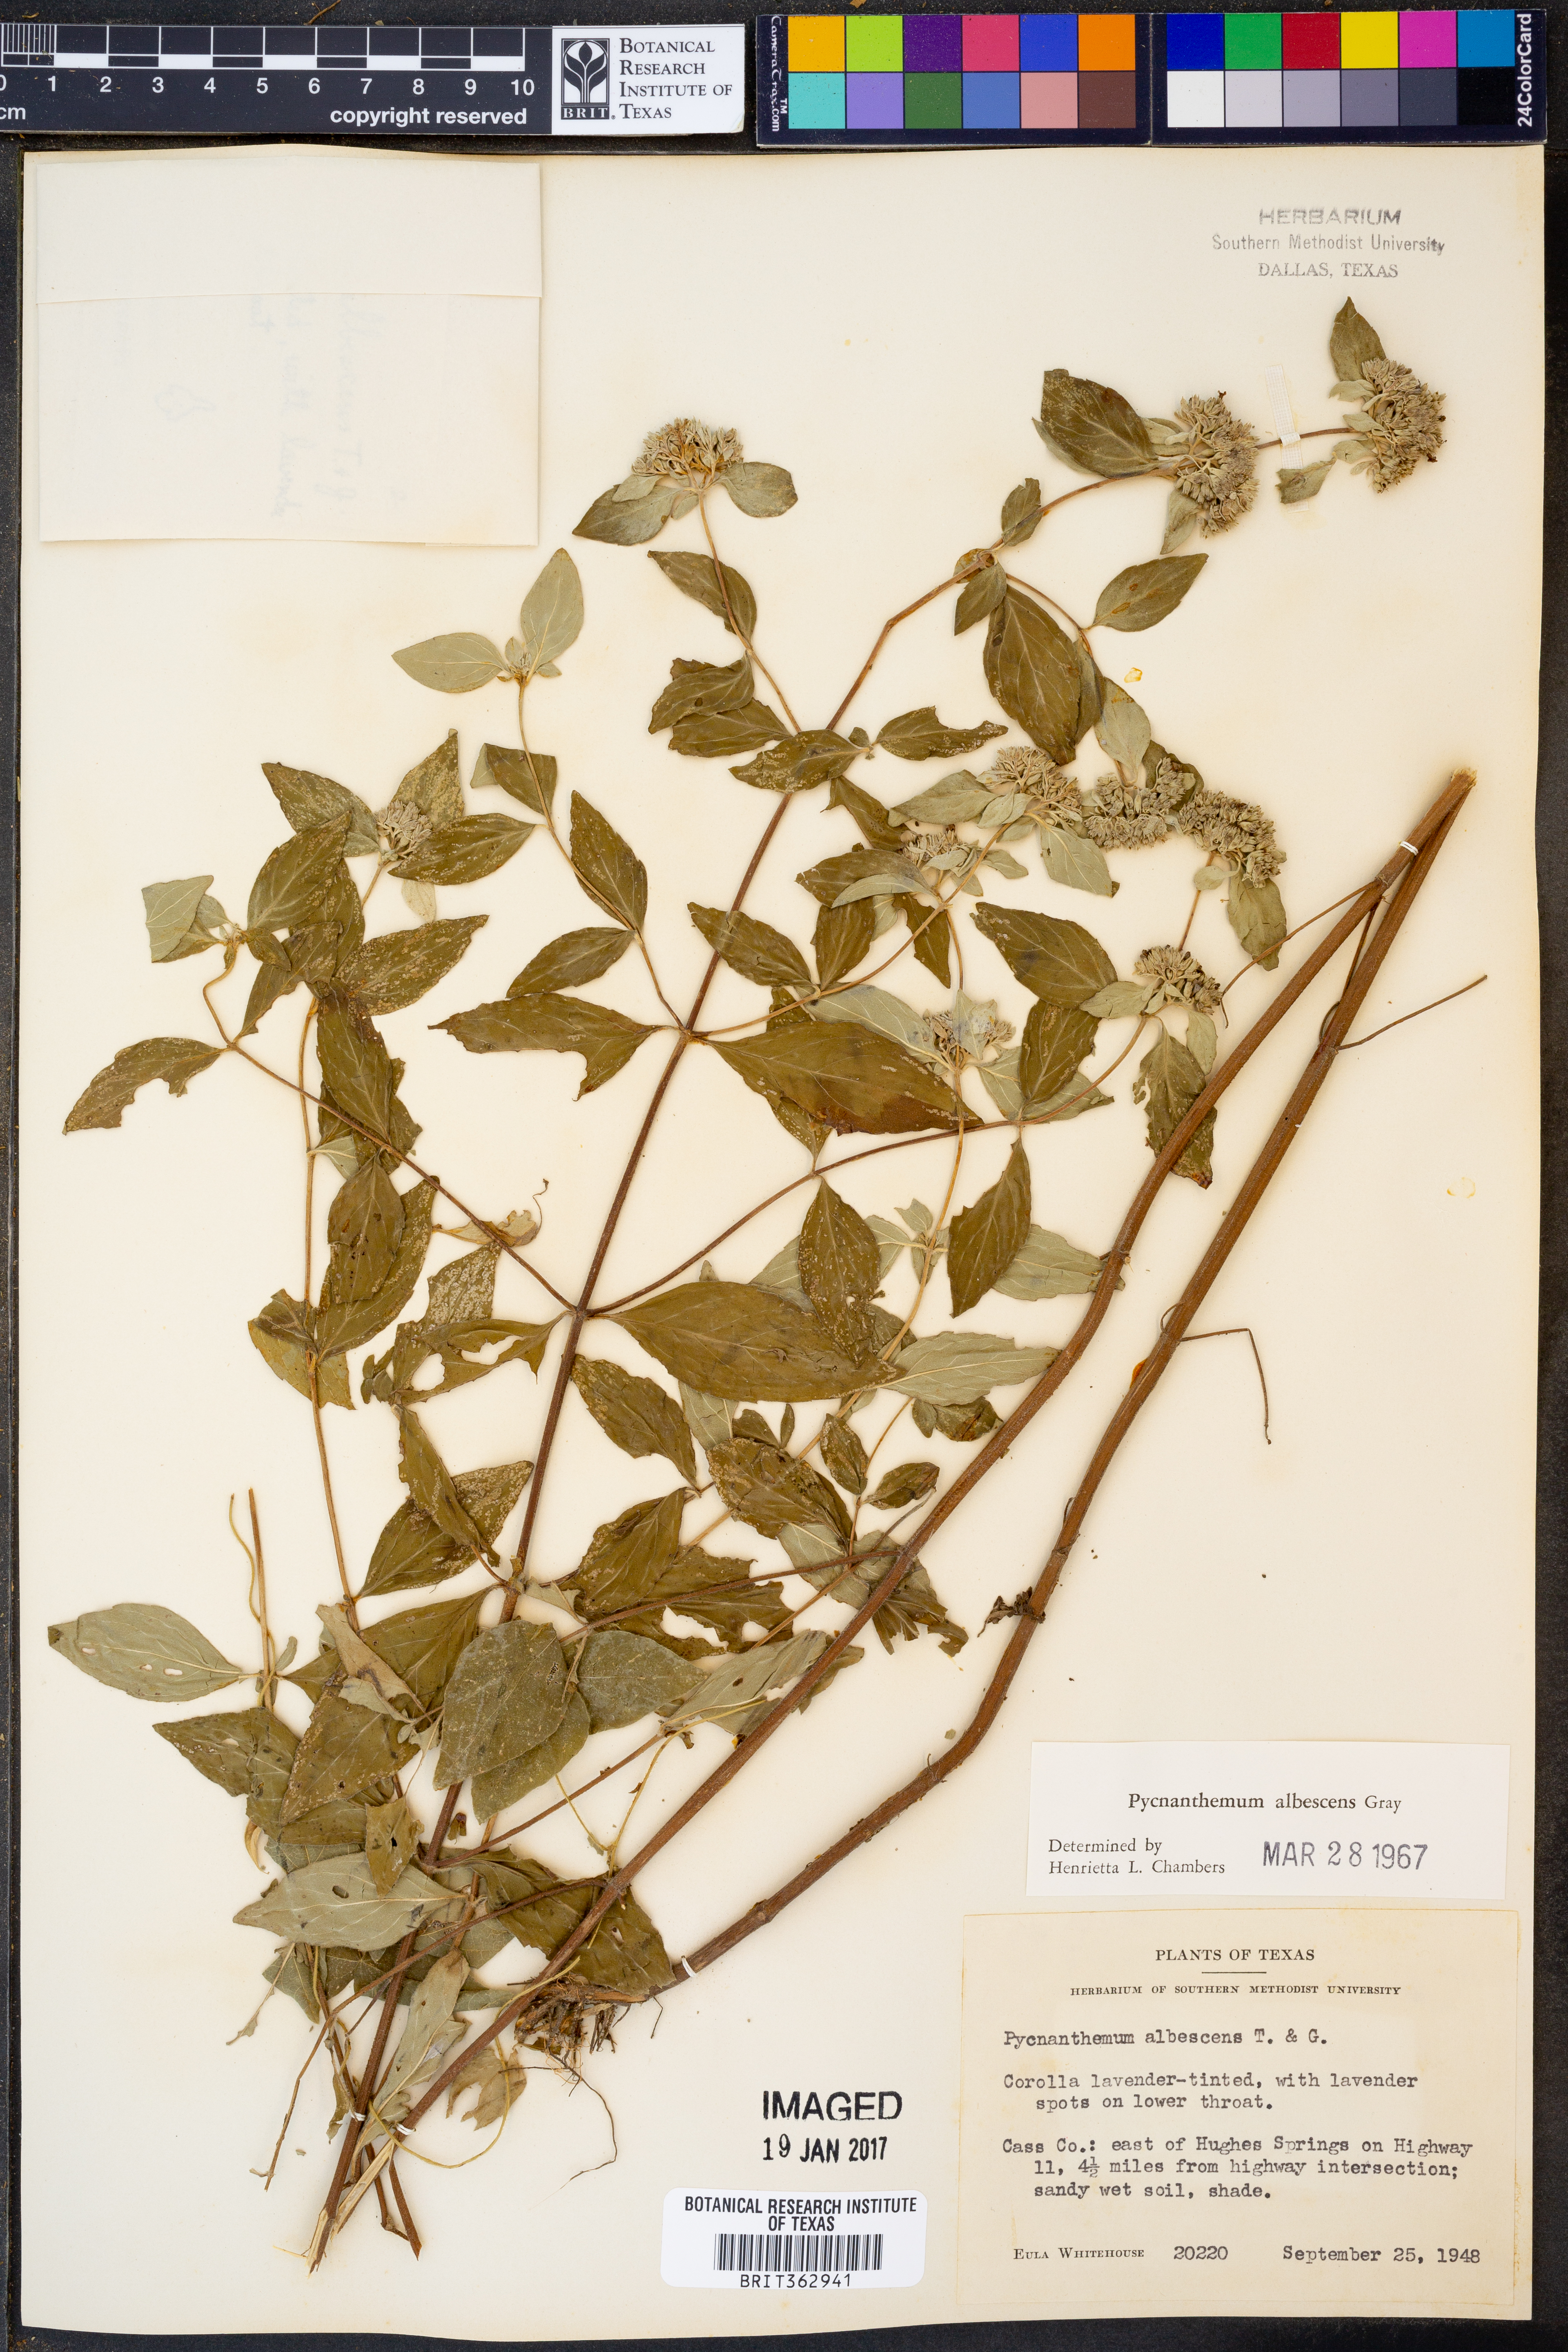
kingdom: Plantae
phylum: Tracheophyta
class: Magnoliopsida
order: Lamiales
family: Lamiaceae
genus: Pycnanthemum
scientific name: Pycnanthemum albescens
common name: White-leaf mountain-mint
